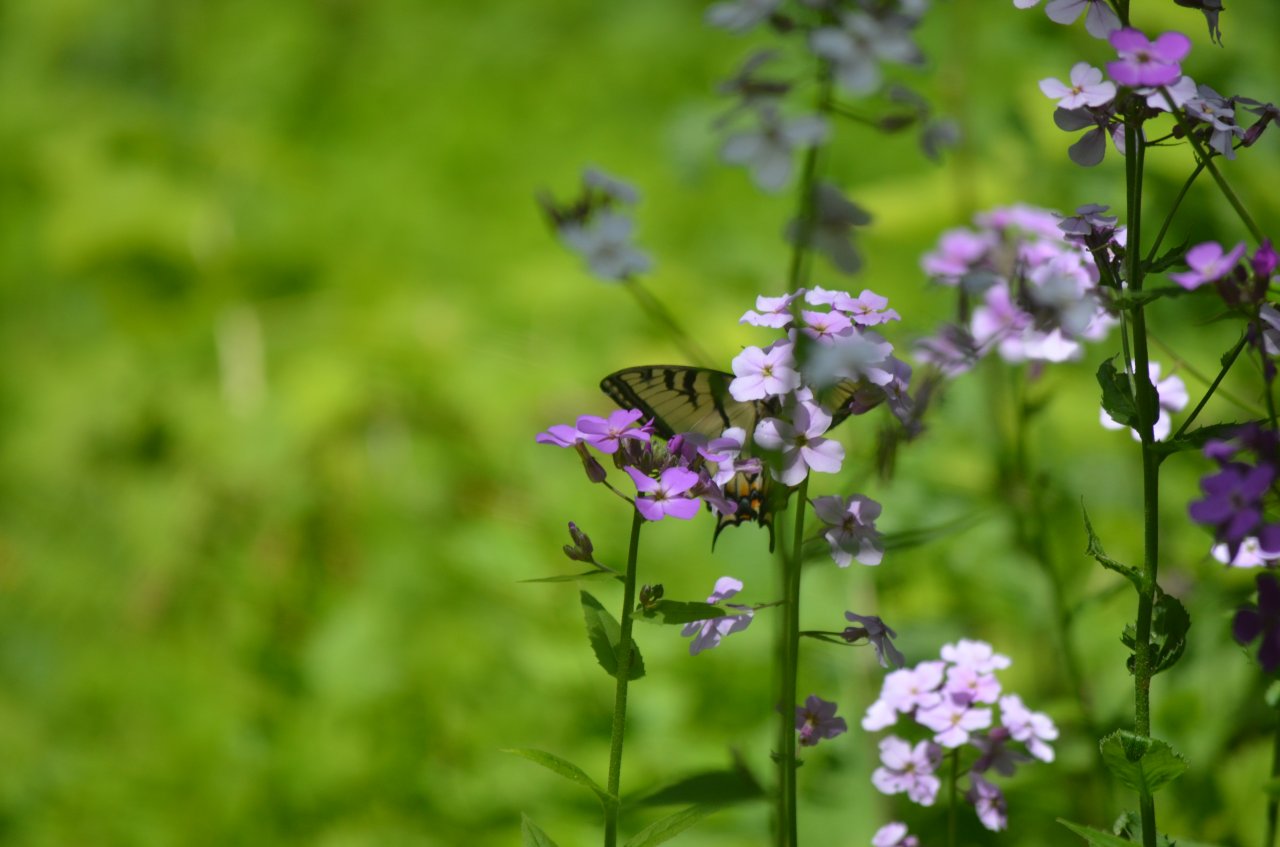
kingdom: Animalia
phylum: Arthropoda
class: Insecta
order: Lepidoptera
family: Papilionidae
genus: Pterourus
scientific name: Pterourus glaucus
